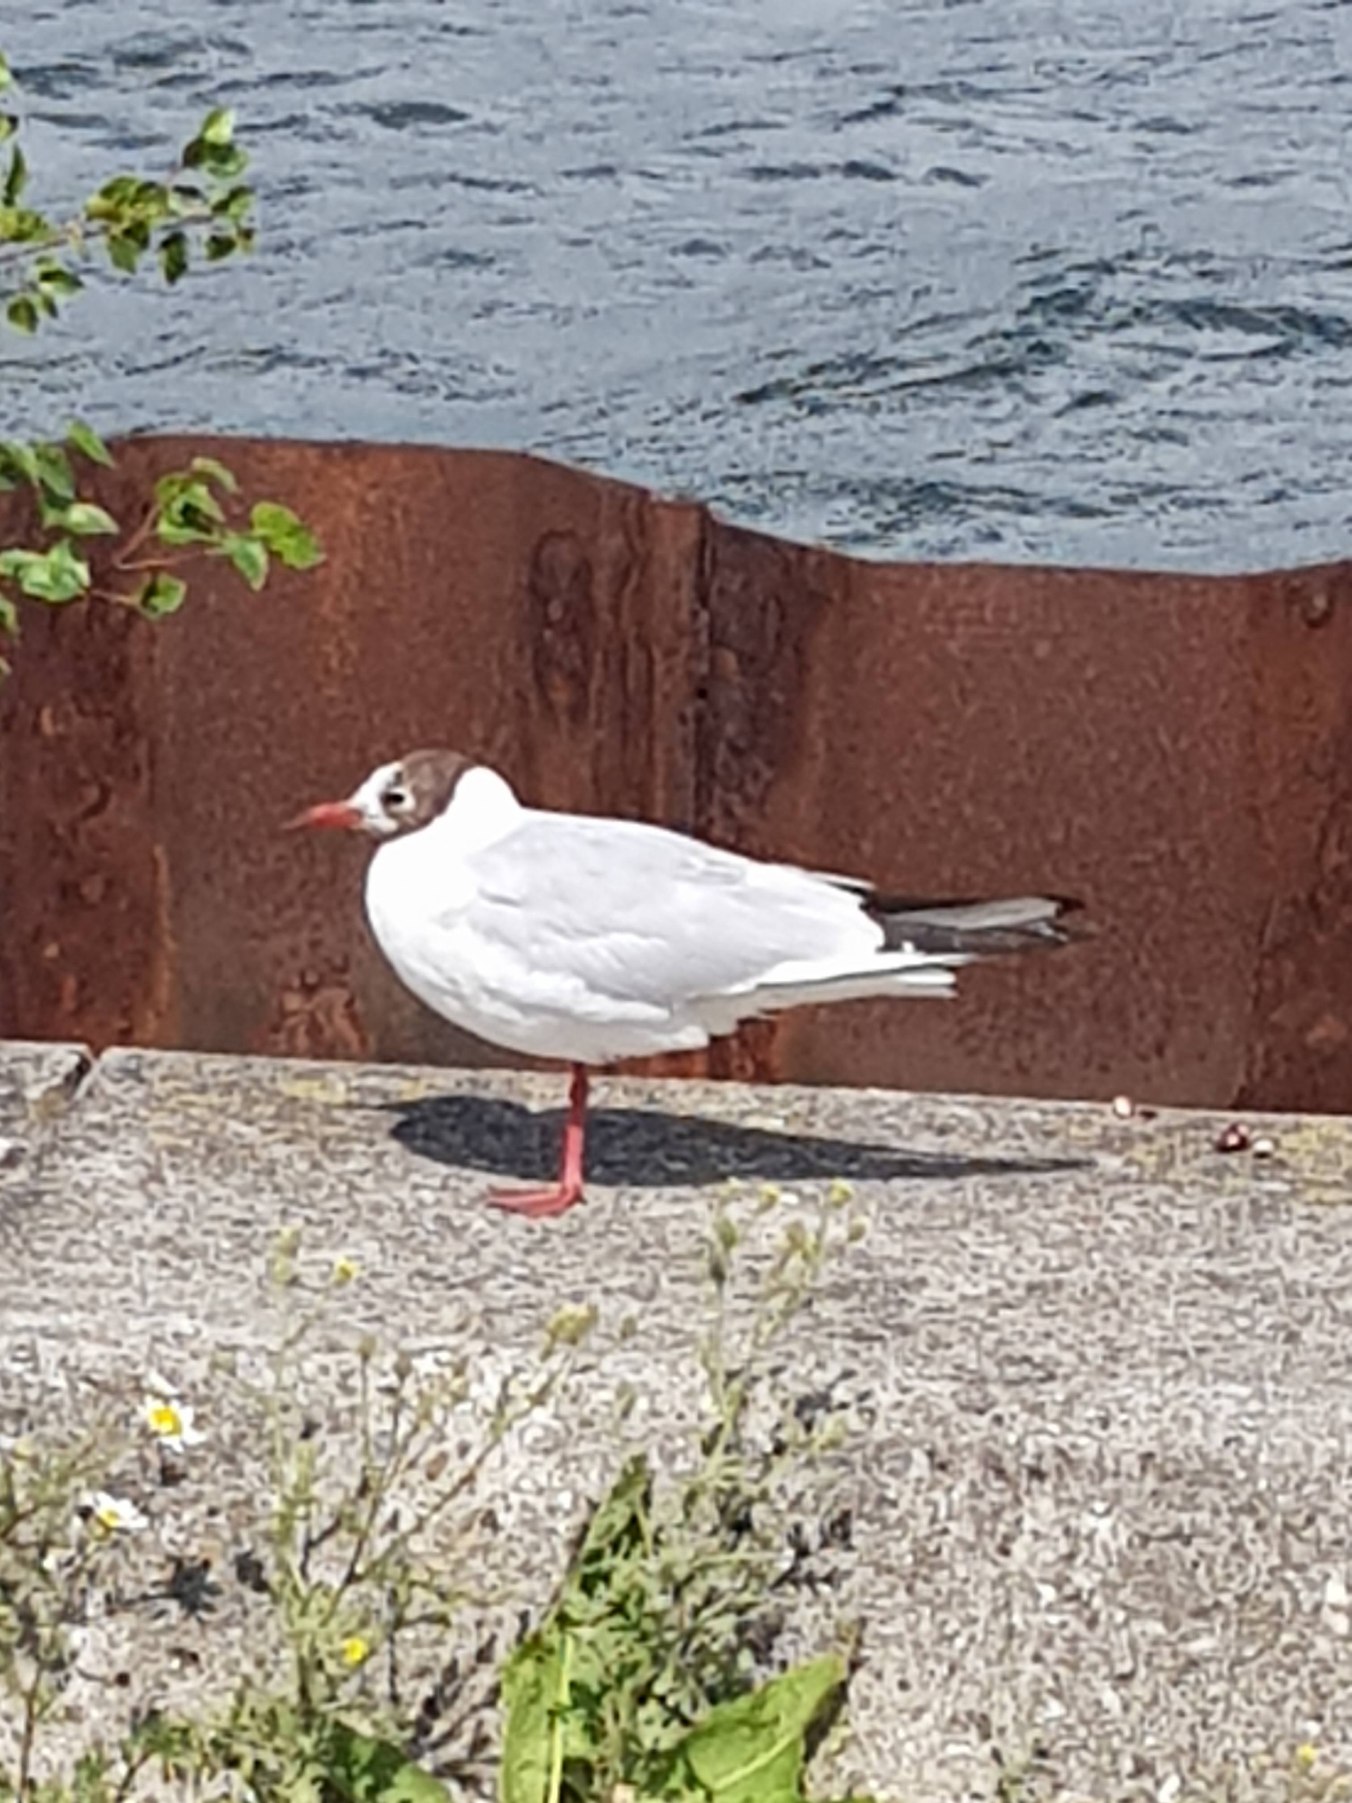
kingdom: Animalia
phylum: Chordata
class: Aves
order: Charadriiformes
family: Laridae
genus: Chroicocephalus
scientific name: Chroicocephalus ridibundus
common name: Hættemåge
